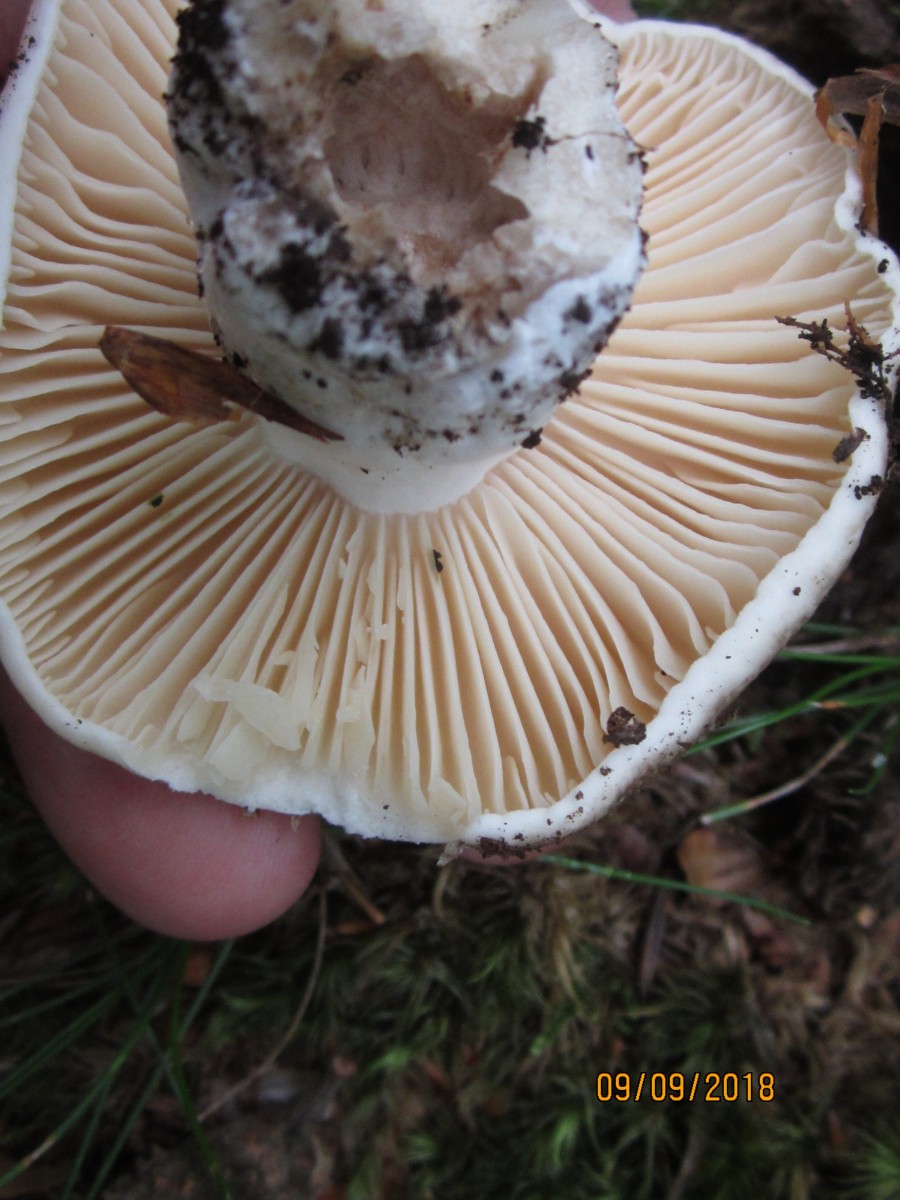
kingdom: Fungi
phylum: Basidiomycota
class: Agaricomycetes
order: Russulales
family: Russulaceae
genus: Russula
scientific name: Russula adusta
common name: sværtende skørhat
